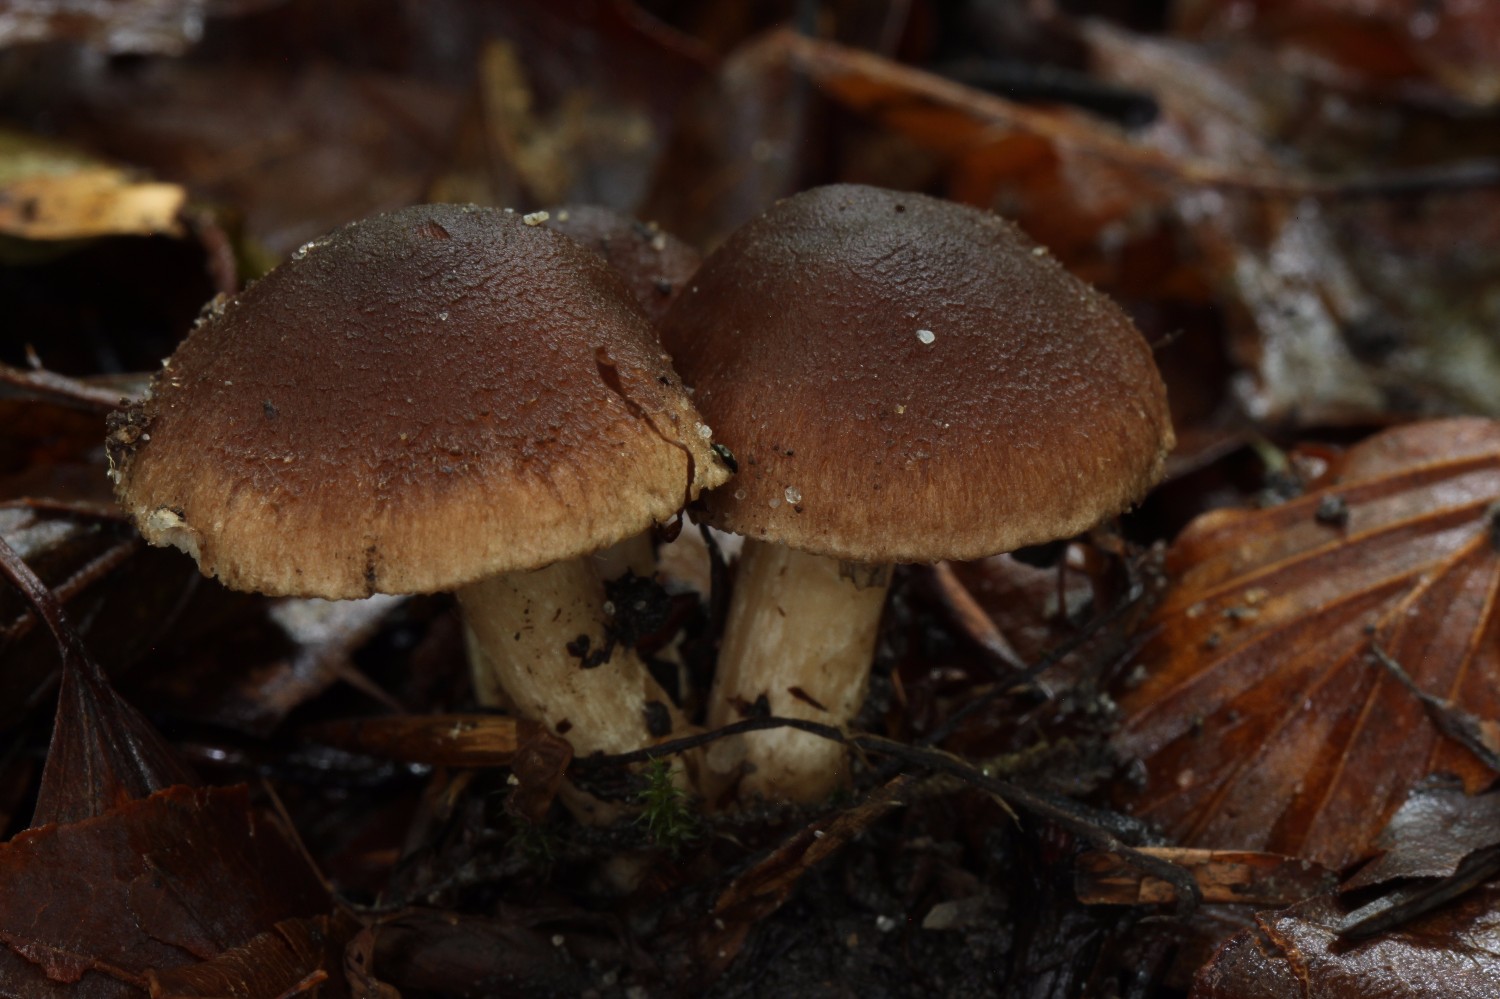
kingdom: Fungi
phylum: Basidiomycota
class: Agaricomycetes
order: Agaricales
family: Inocybaceae
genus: Inocybe
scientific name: Inocybe hamadryadis
